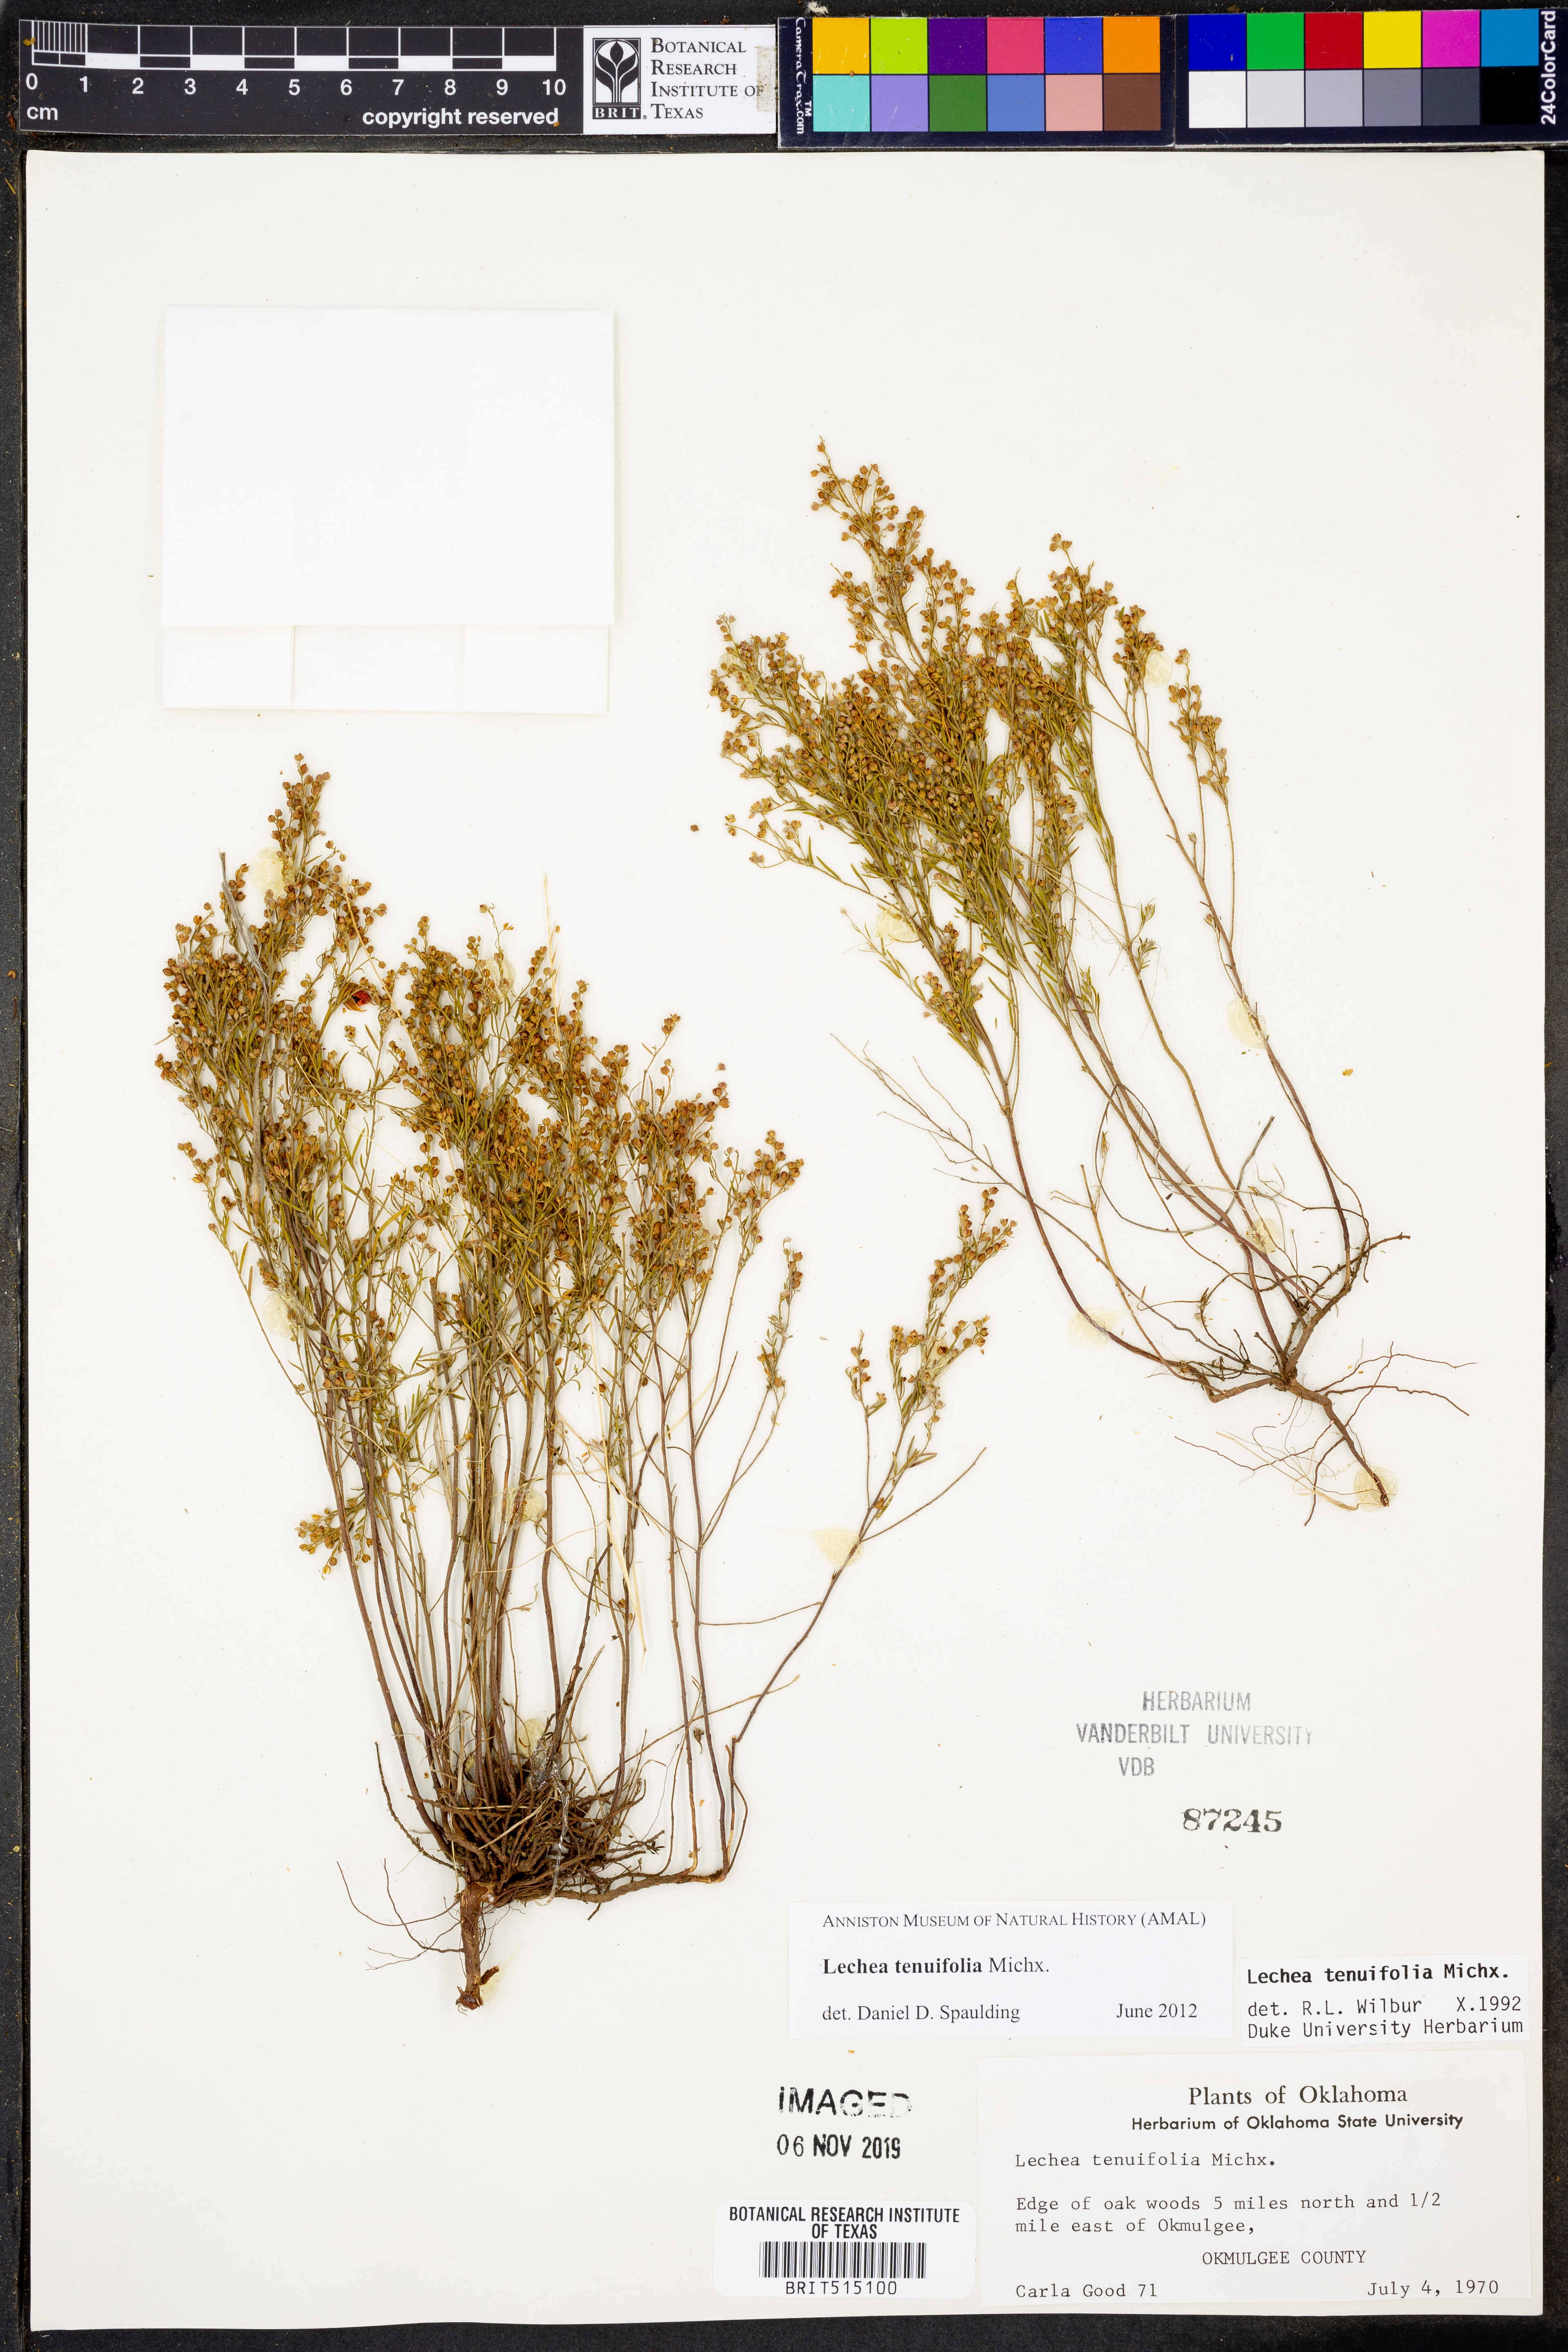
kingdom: Plantae
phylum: Tracheophyta
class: Magnoliopsida
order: Malvales
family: Cistaceae
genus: Lechea
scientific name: Lechea tenuifolia
